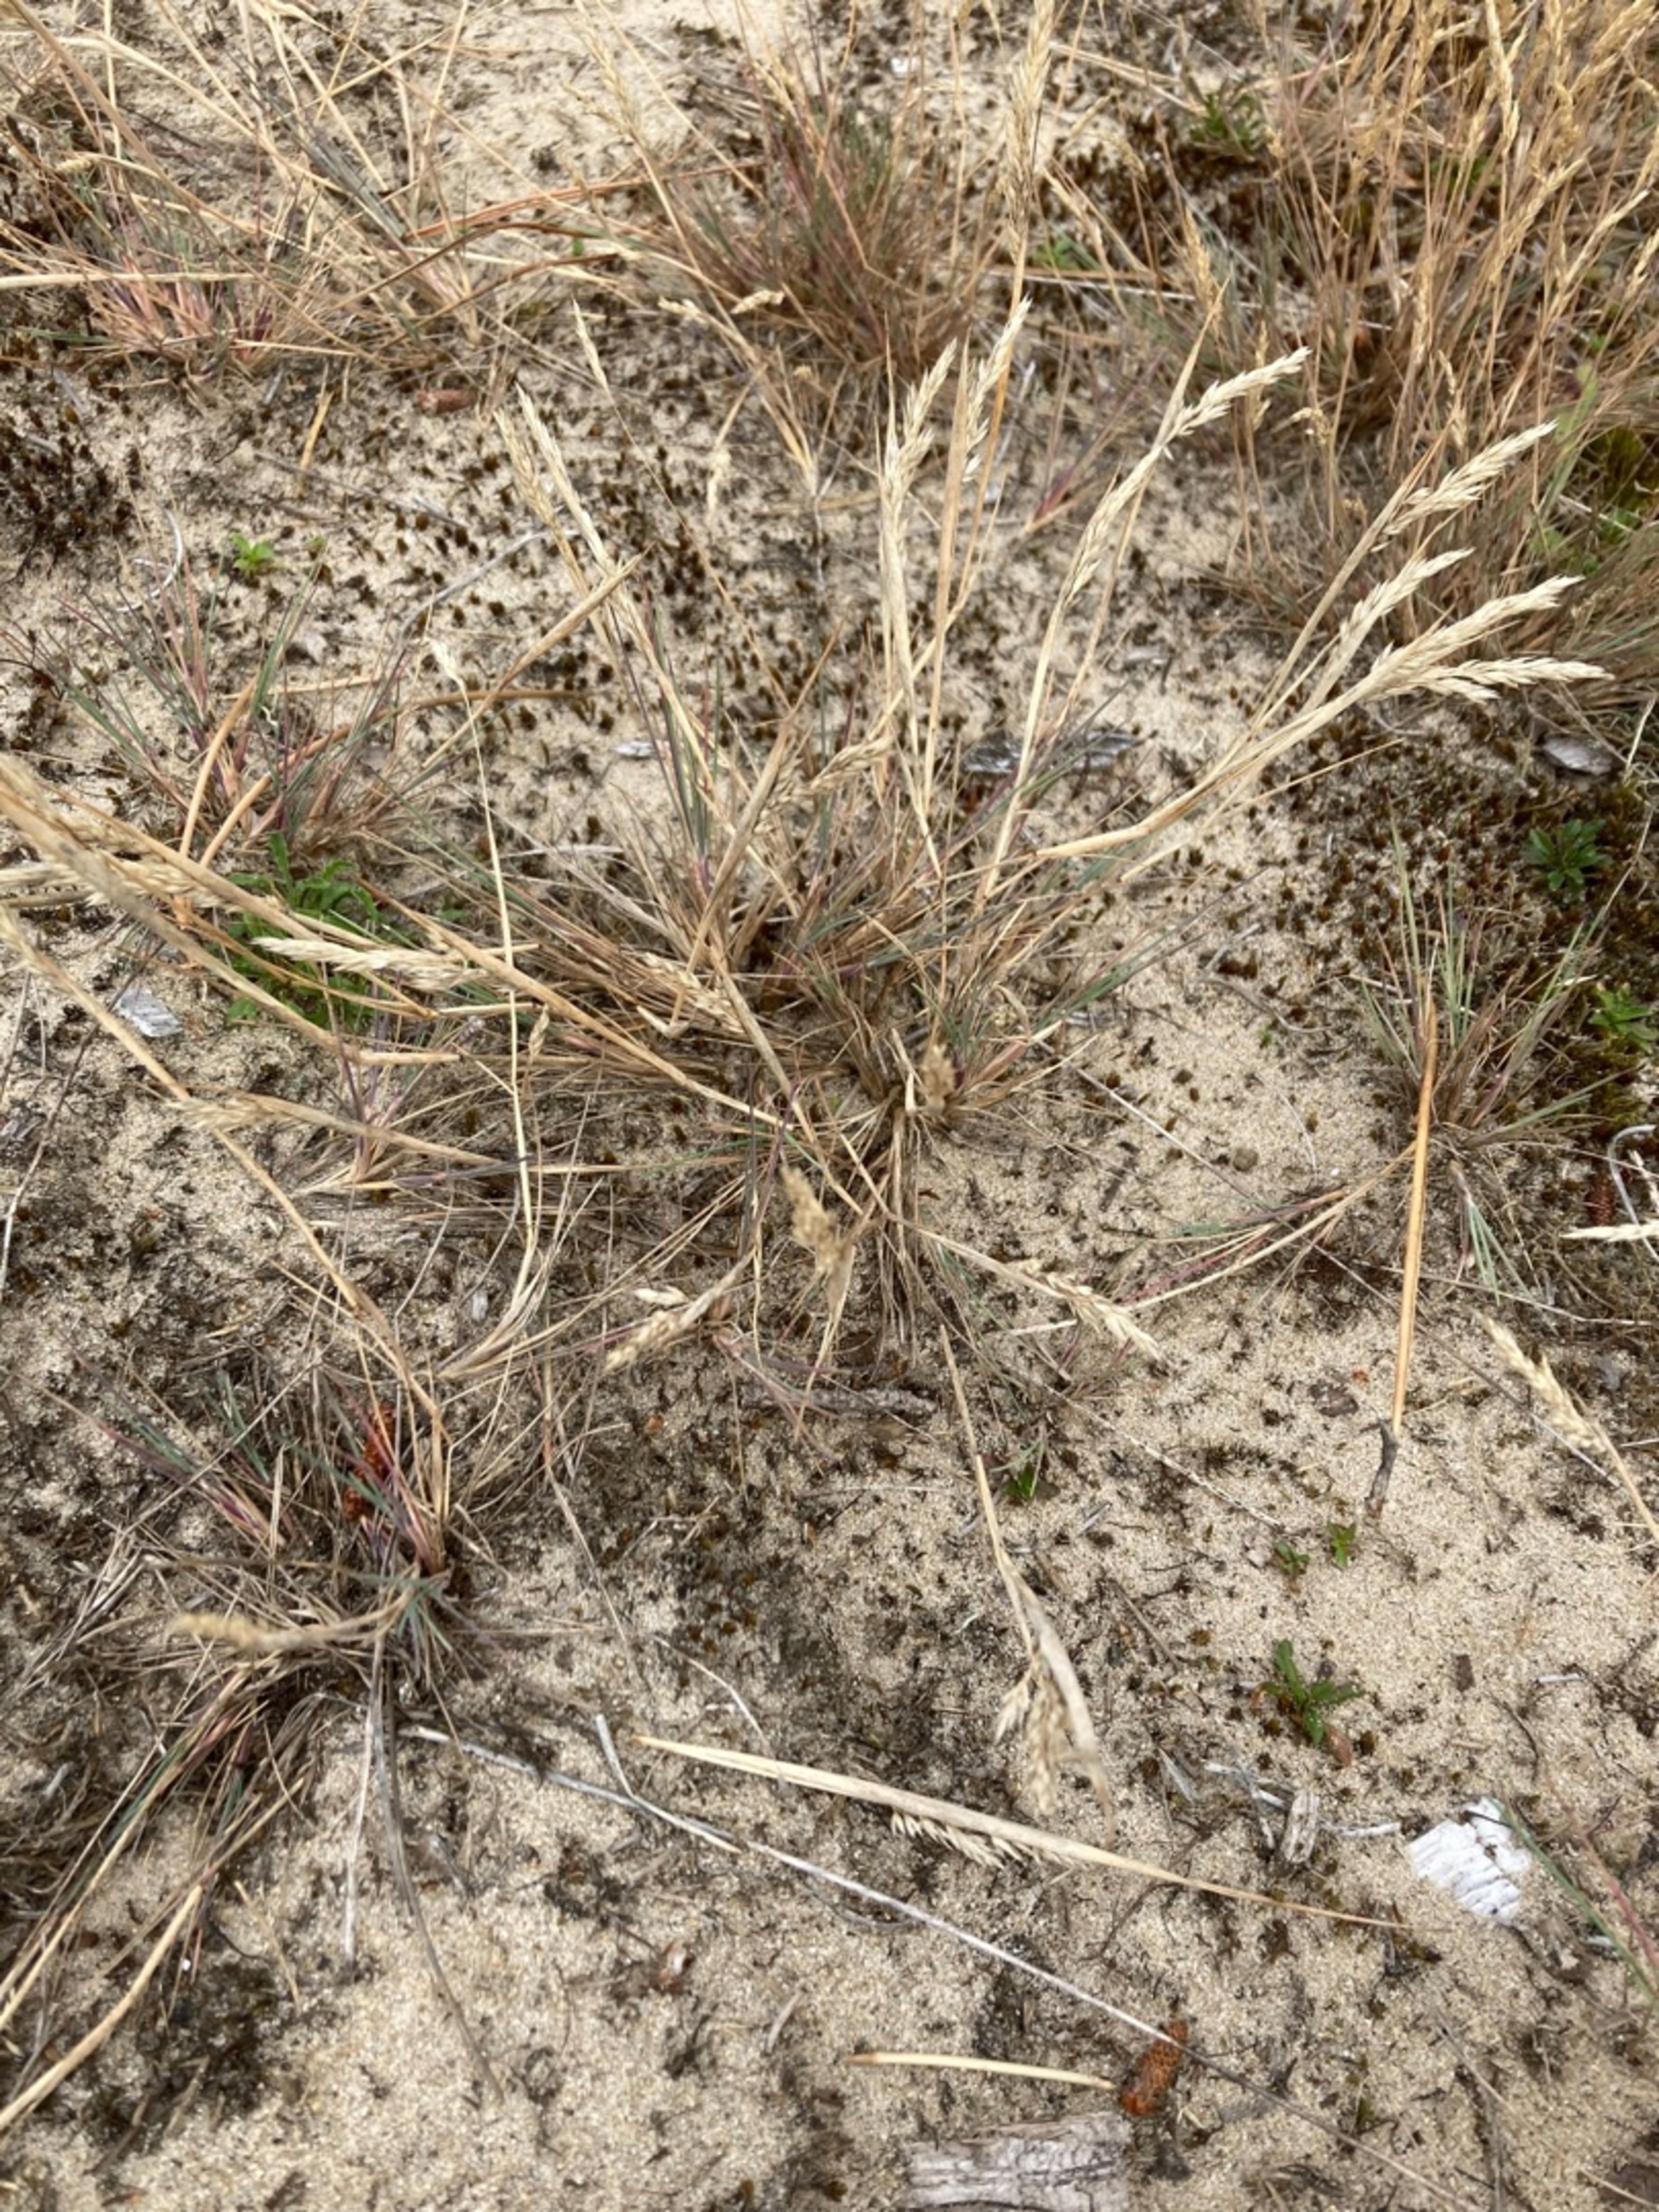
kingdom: Plantae
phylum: Tracheophyta
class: Liliopsida
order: Poales
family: Poaceae
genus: Corynephorus
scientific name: Corynephorus canescens
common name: Sandskæg
